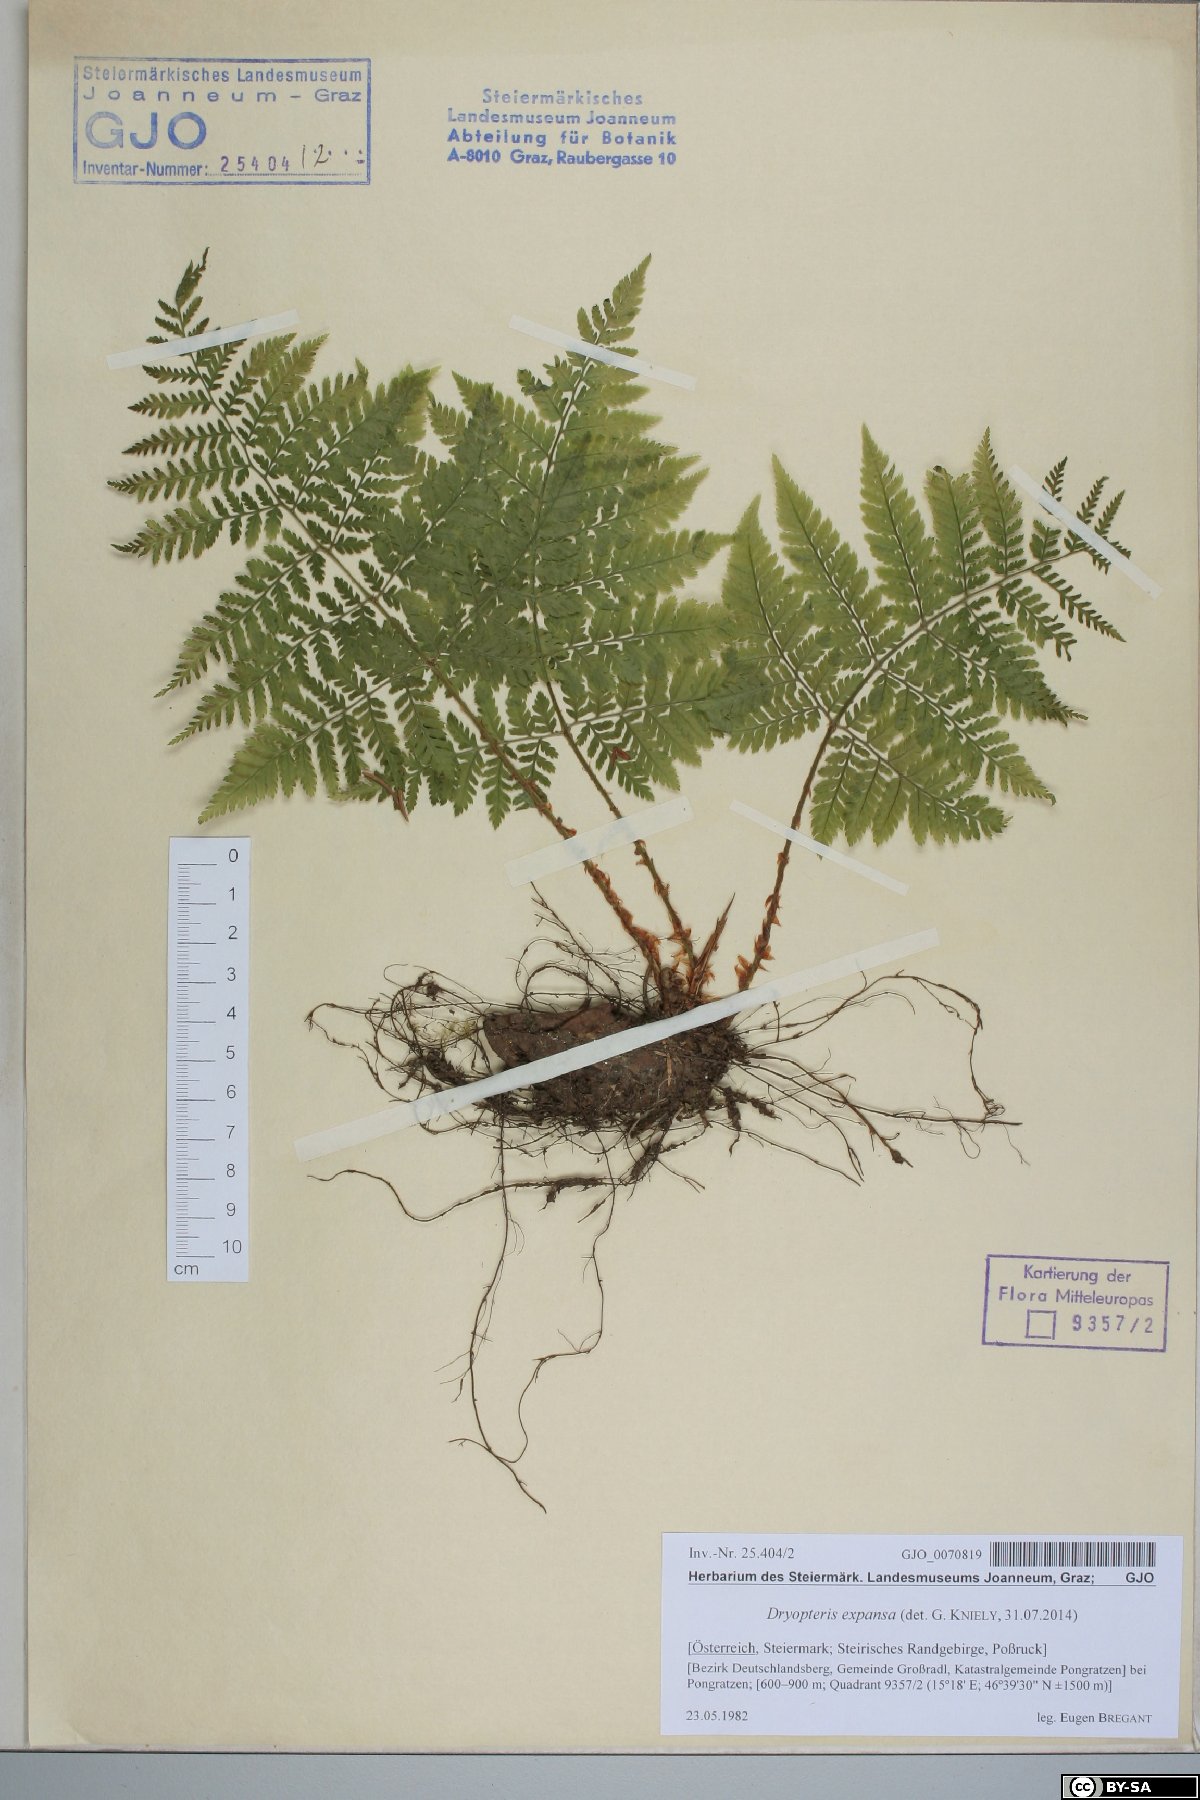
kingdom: Plantae
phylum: Tracheophyta
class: Polypodiopsida
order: Polypodiales
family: Dryopteridaceae
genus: Dryopteris
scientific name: Dryopteris expansa
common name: Northern buckler fern
